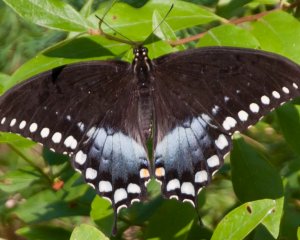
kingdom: Animalia
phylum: Arthropoda
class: Insecta
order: Lepidoptera
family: Papilionidae
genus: Pterourus
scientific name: Pterourus troilus
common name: Spicebush Swallowtail
